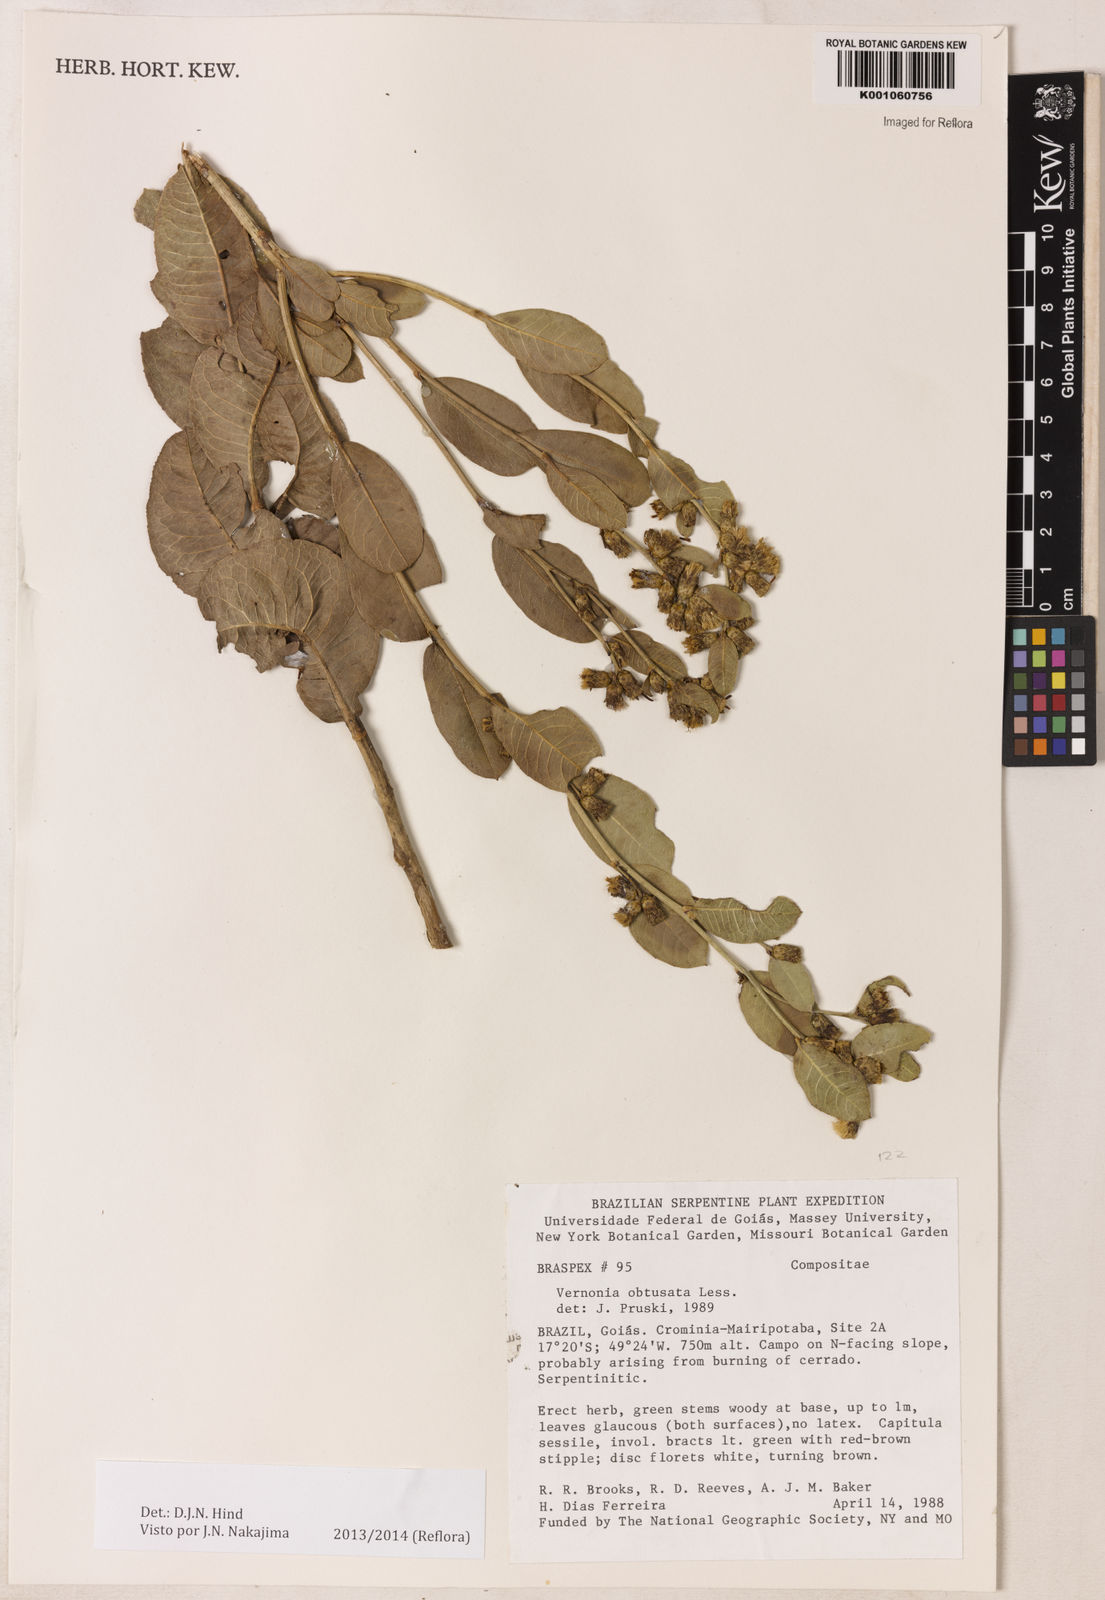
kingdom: Plantae
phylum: Tracheophyta
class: Magnoliopsida
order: Asterales
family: Asteraceae
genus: Lessingianthus
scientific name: Lessingianthus obtusatus
